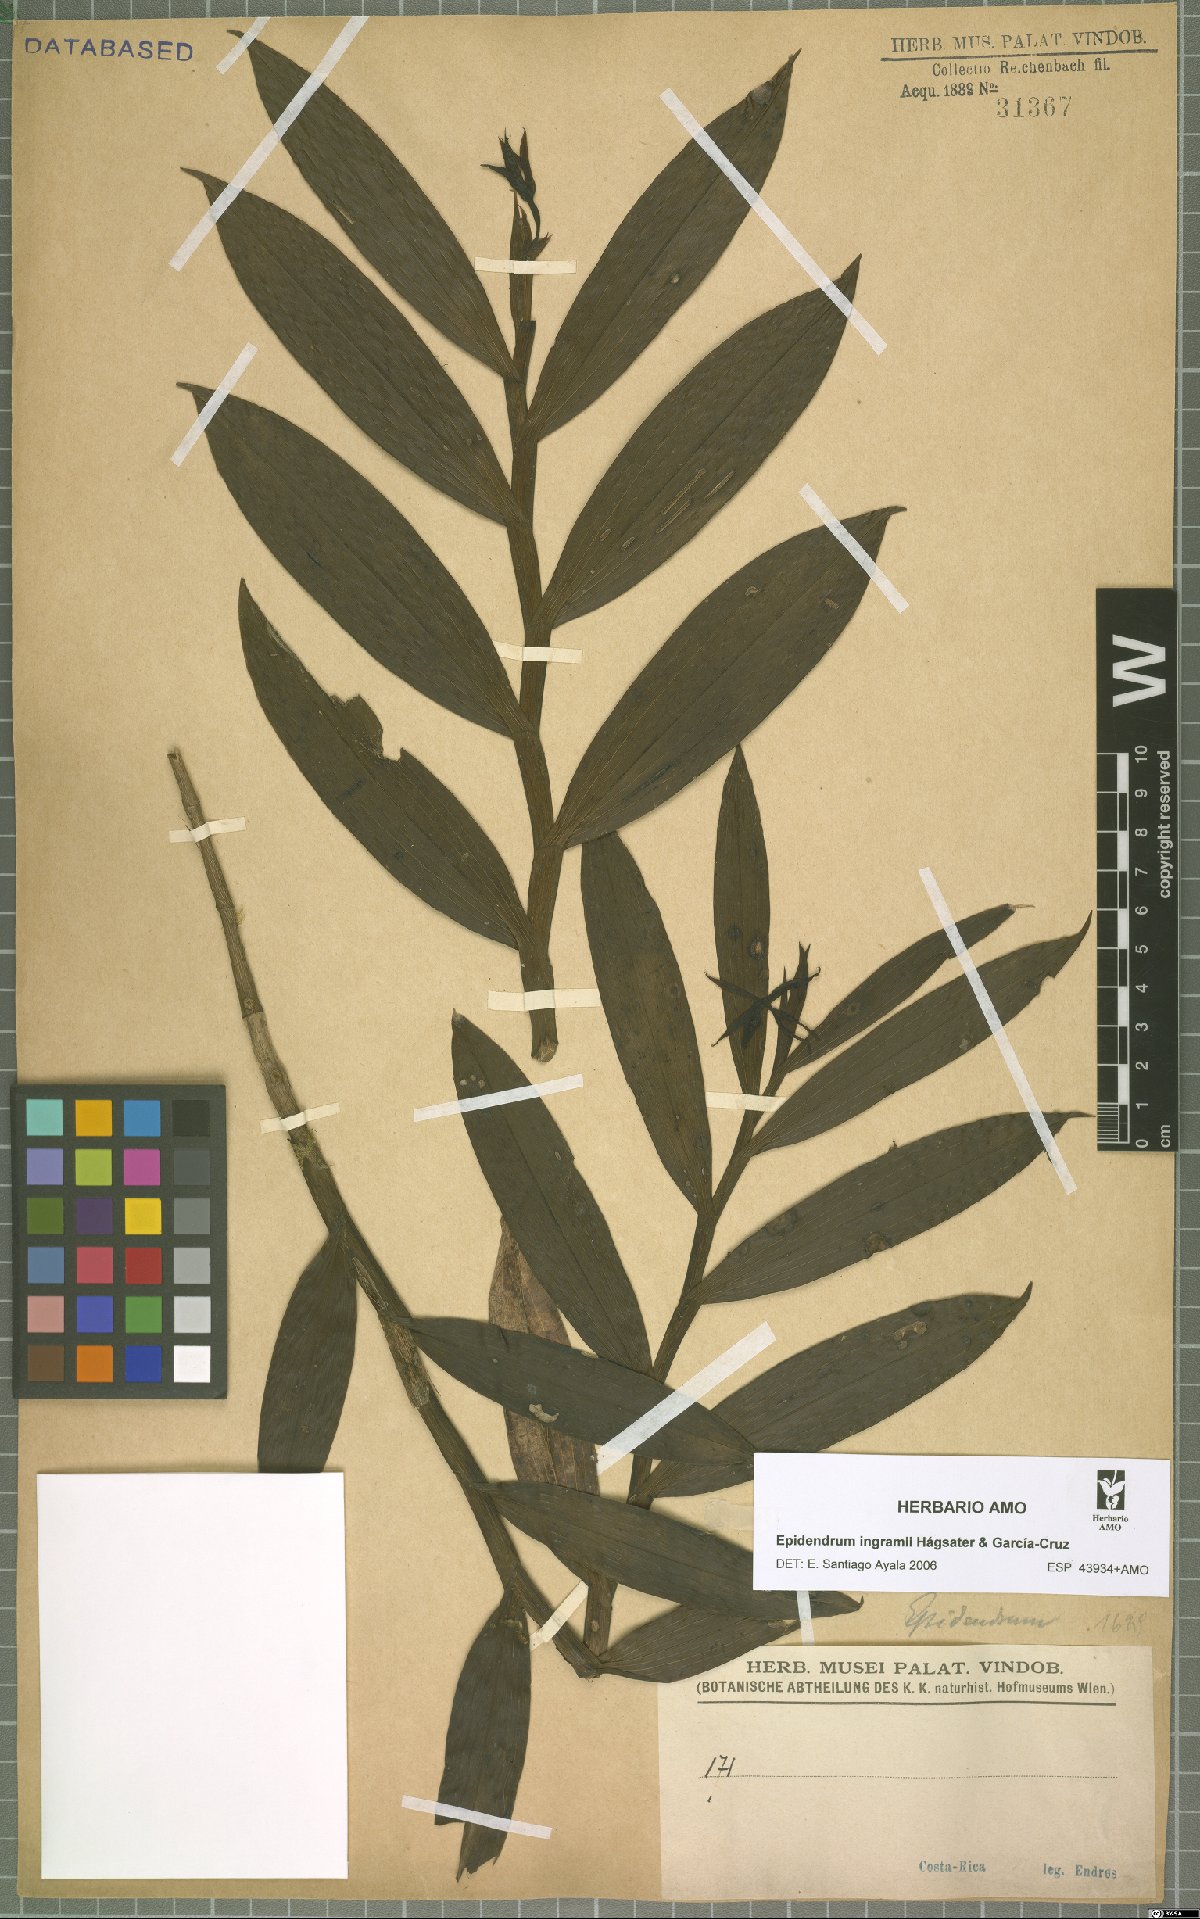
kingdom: Plantae
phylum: Tracheophyta
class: Liliopsida
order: Asparagales
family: Orchidaceae
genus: Epidendrum
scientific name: Epidendrum ingramii
